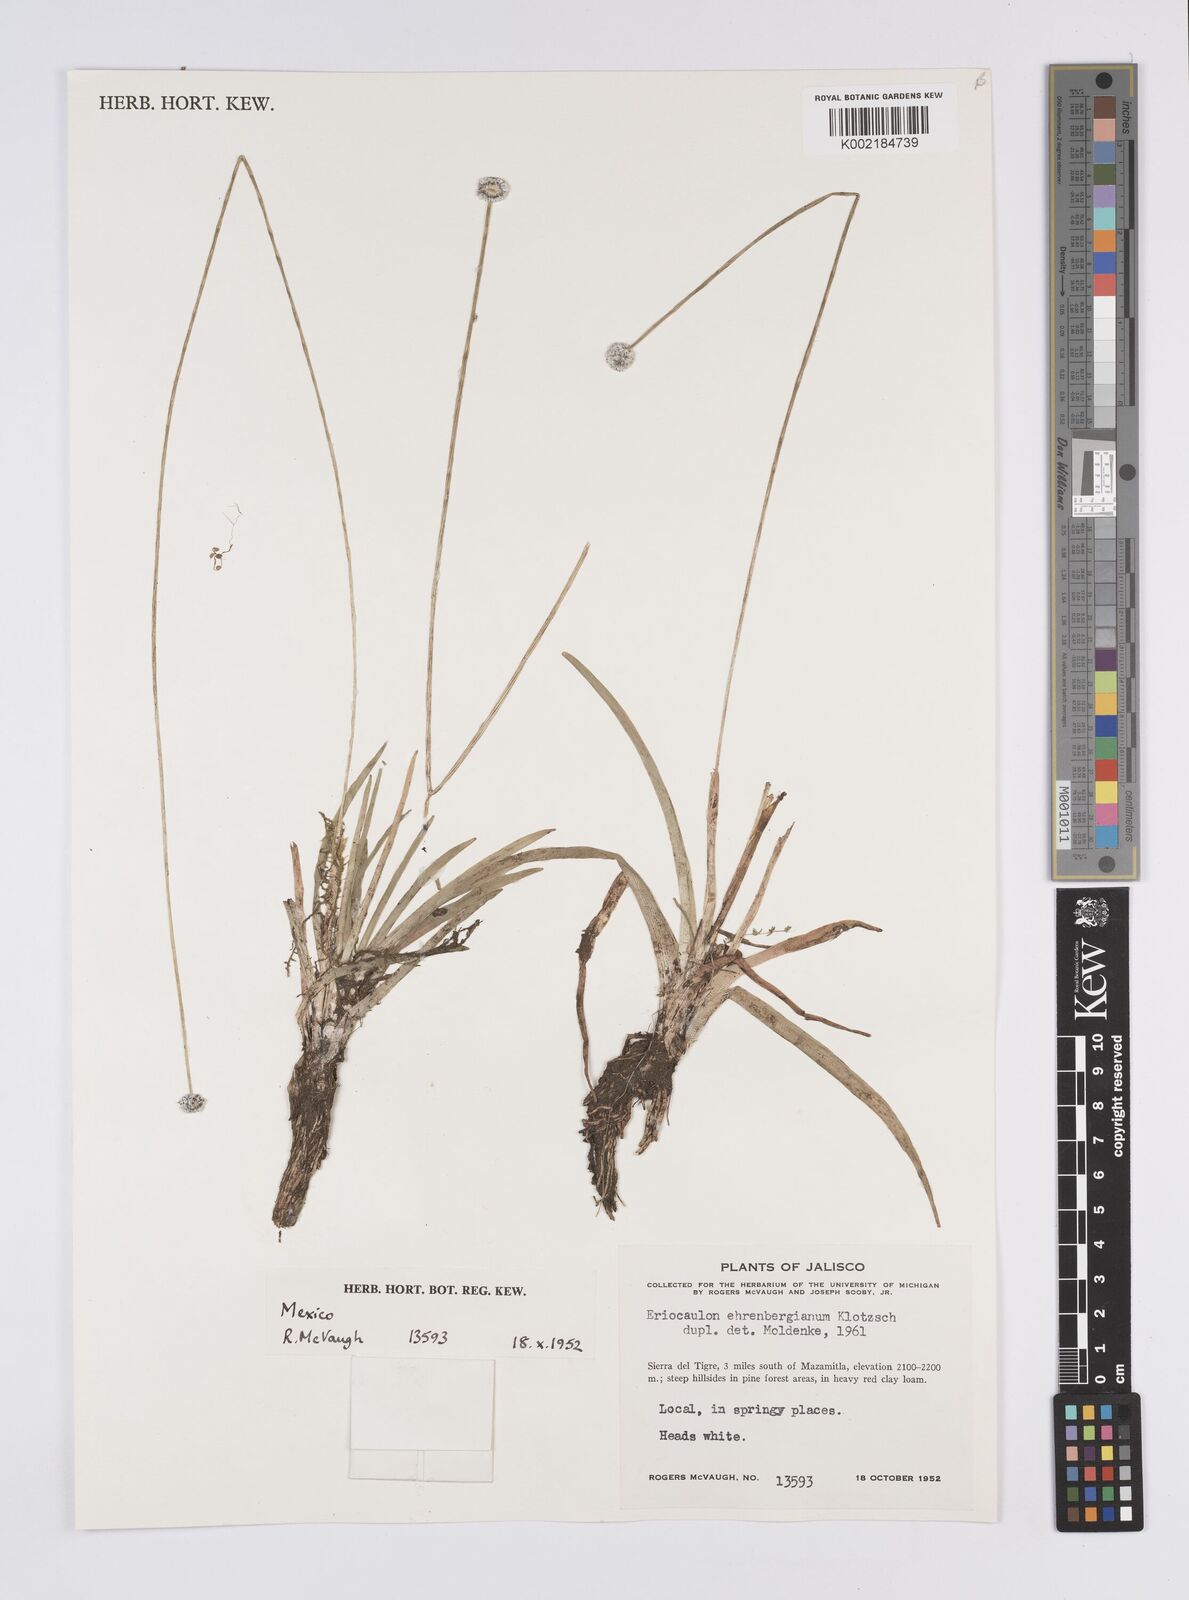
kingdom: Plantae
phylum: Tracheophyta
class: Liliopsida
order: Poales
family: Eriocaulaceae
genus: Eriocaulon
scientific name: Eriocaulon ehrenbergianum
